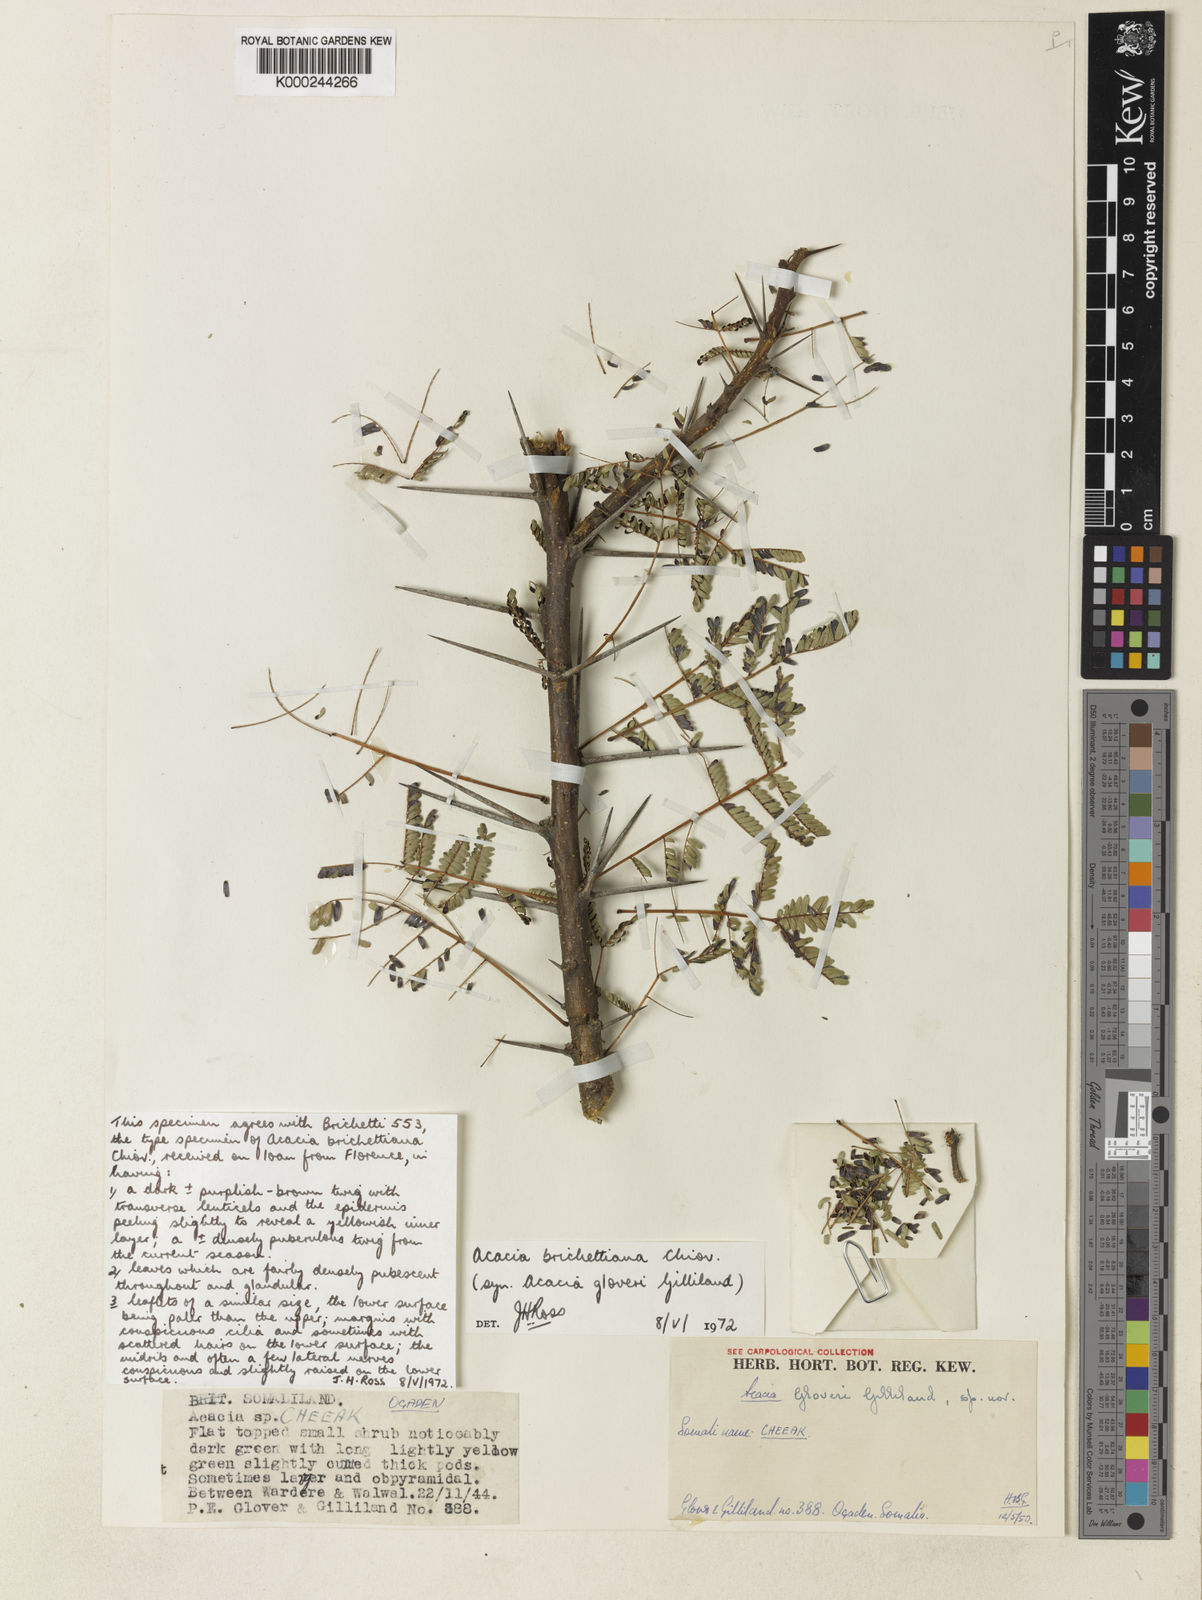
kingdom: Plantae
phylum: Tracheophyta
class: Magnoliopsida
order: Fabales
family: Fabaceae
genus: Vachellia
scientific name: Vachellia edgeworthii
